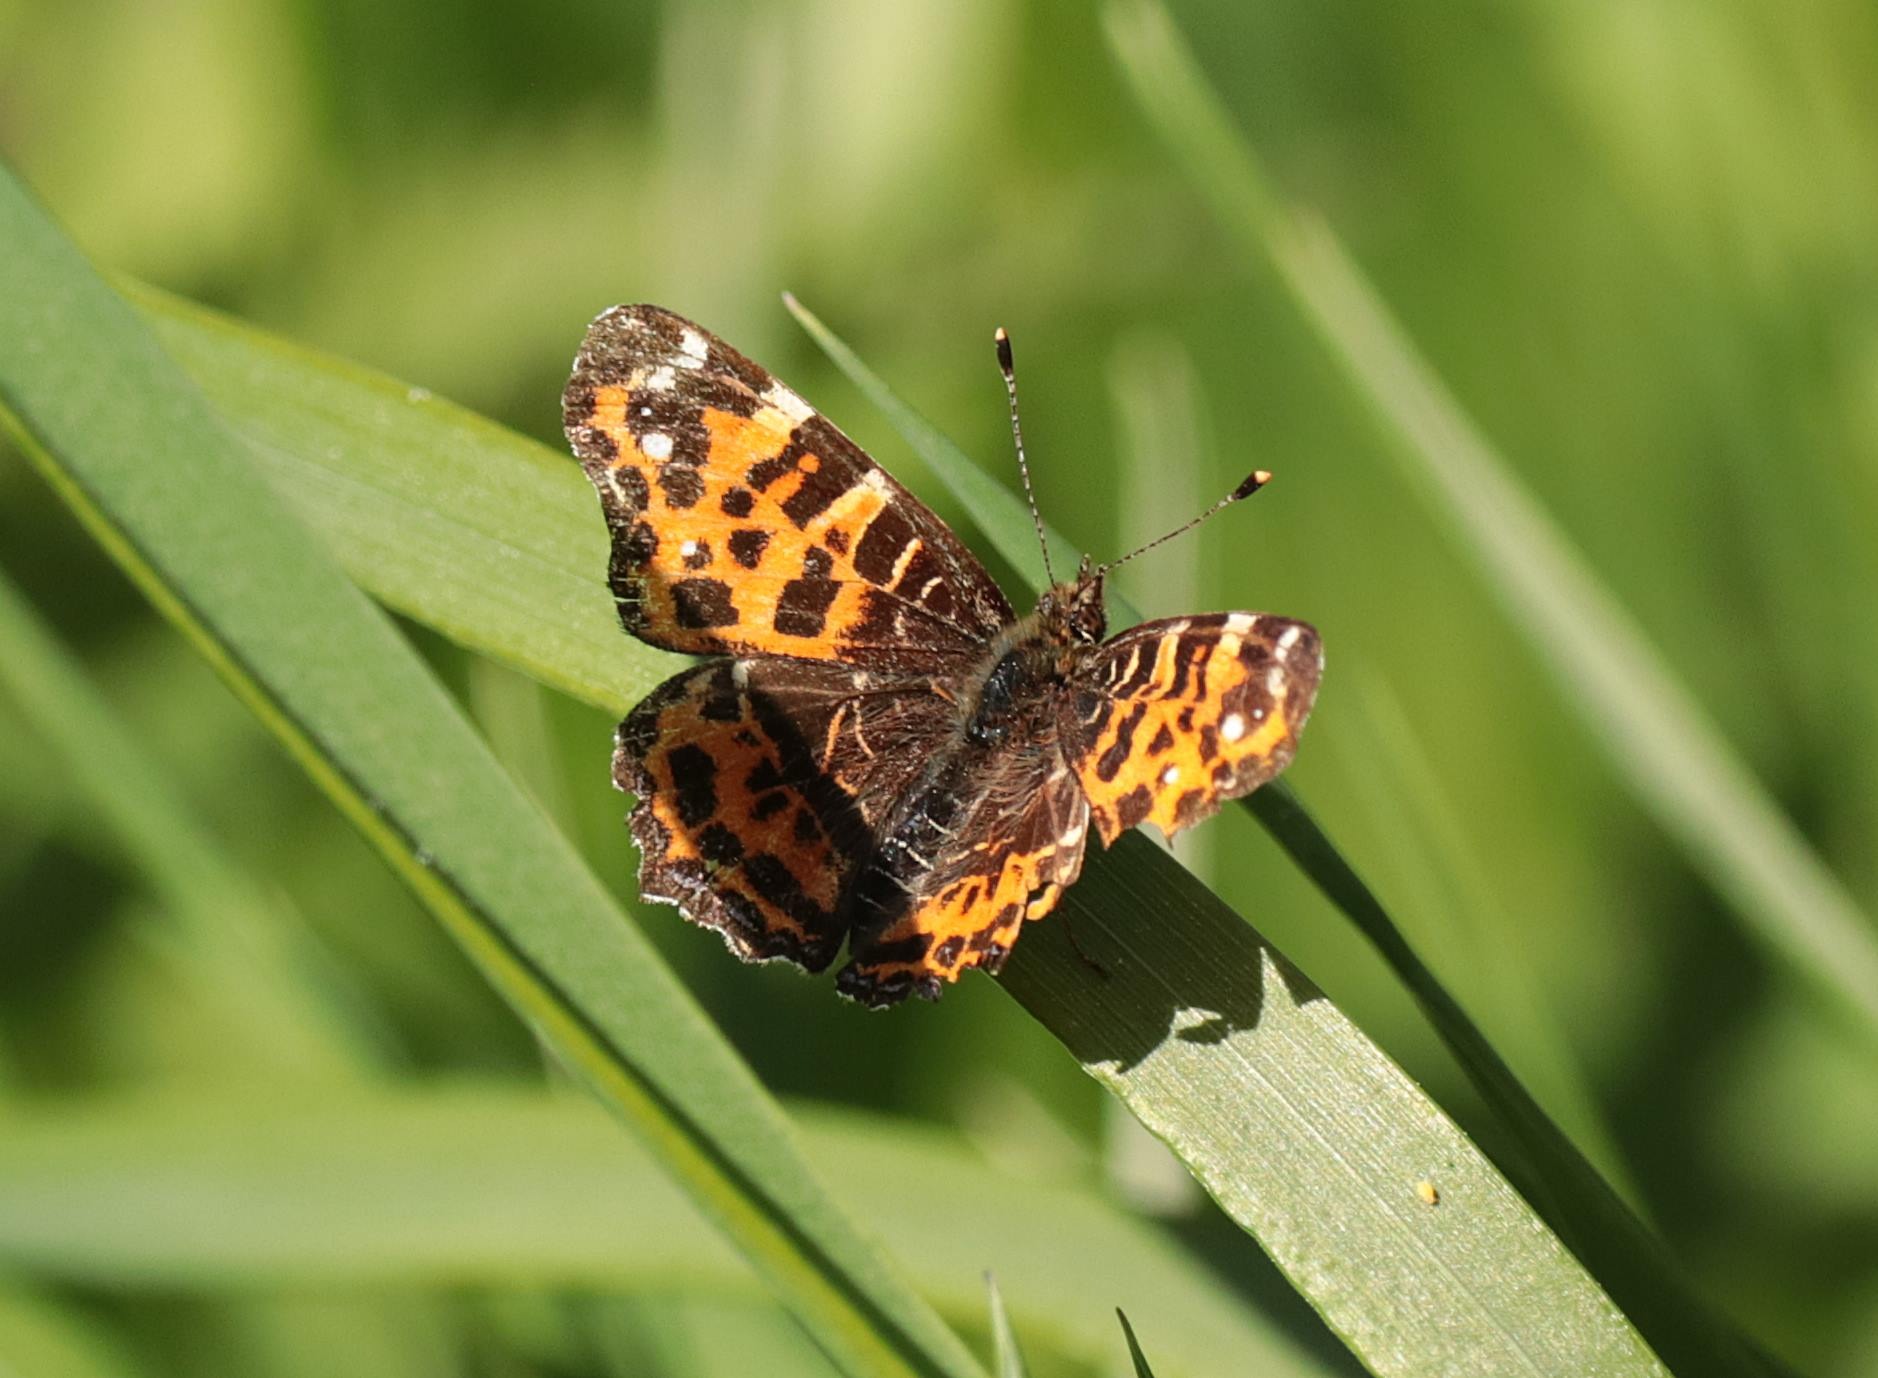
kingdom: Animalia
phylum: Arthropoda
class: Insecta
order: Lepidoptera
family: Nymphalidae
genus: Araschnia
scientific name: Araschnia levana
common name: Nældesommerfugl
